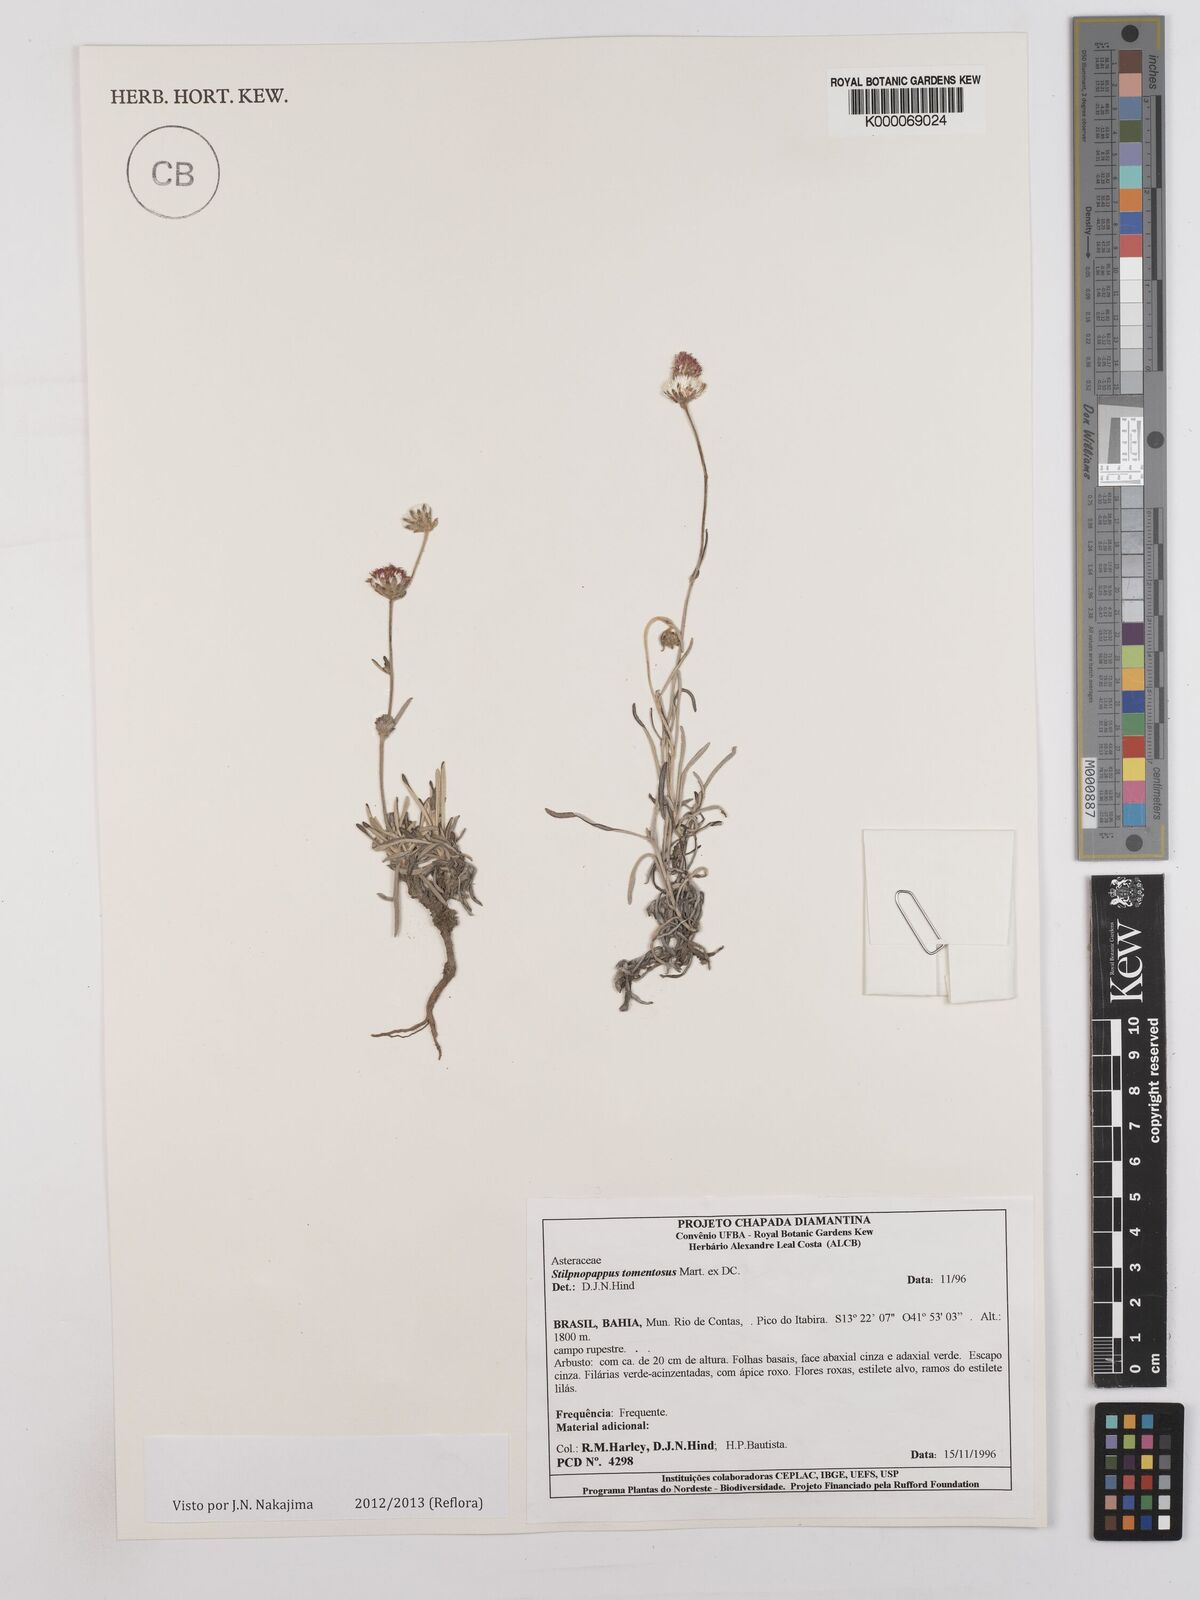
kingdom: Plantae
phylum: Tracheophyta
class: Magnoliopsida
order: Asterales
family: Asteraceae
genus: Stilpnopappus
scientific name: Stilpnopappus tomentosus
